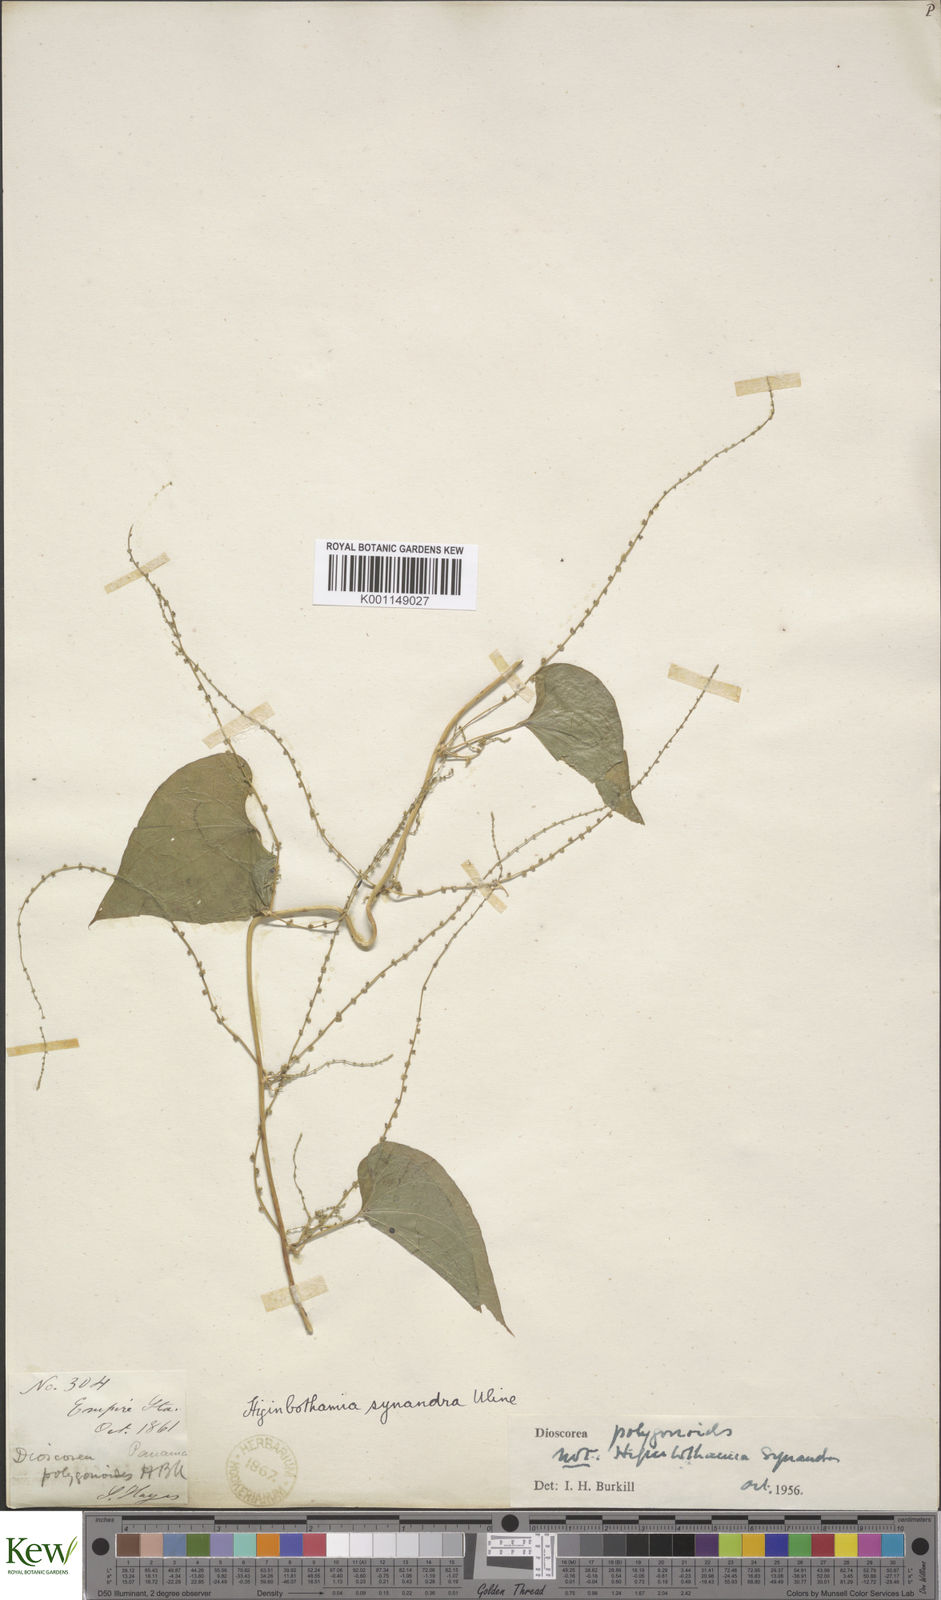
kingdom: Plantae
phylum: Tracheophyta
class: Liliopsida
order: Dioscoreales
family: Dioscoreaceae
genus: Dioscorea
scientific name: Dioscorea polygonoides
